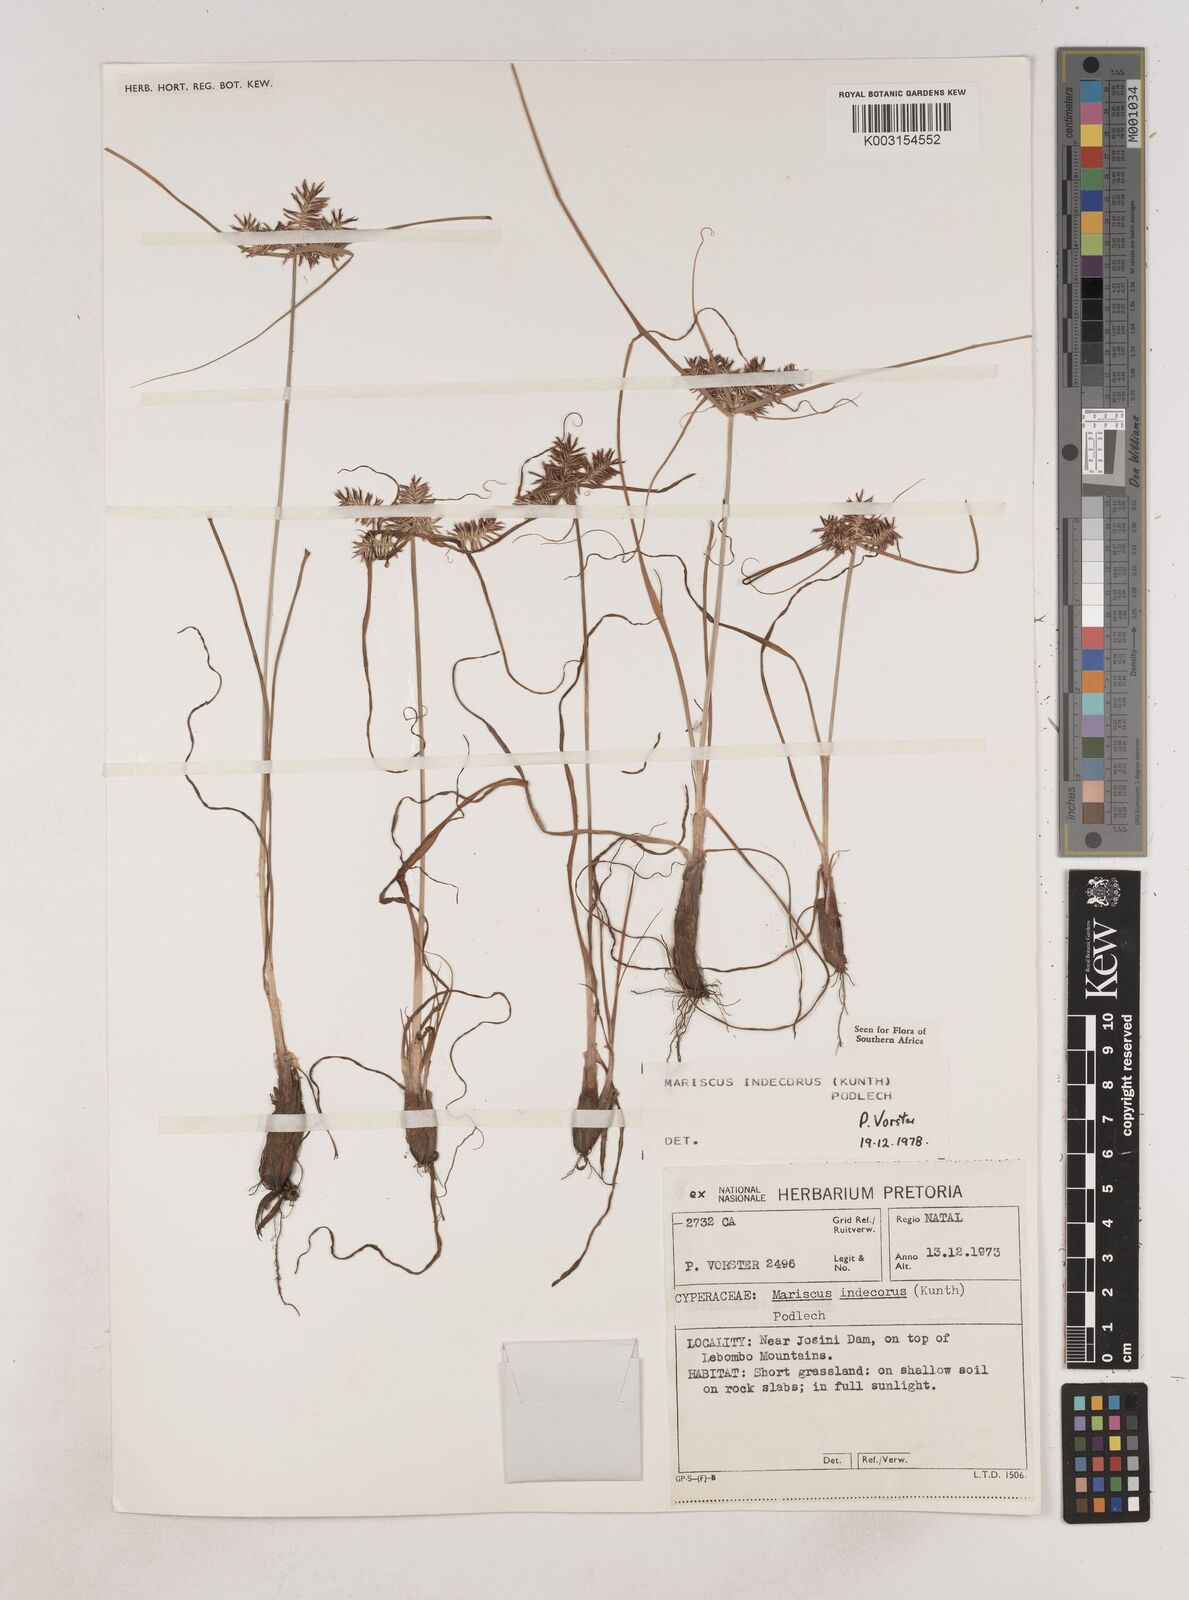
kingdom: Plantae
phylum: Tracheophyta
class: Liliopsida
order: Poales
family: Cyperaceae
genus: Cyperus
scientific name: Cyperus indecorus
